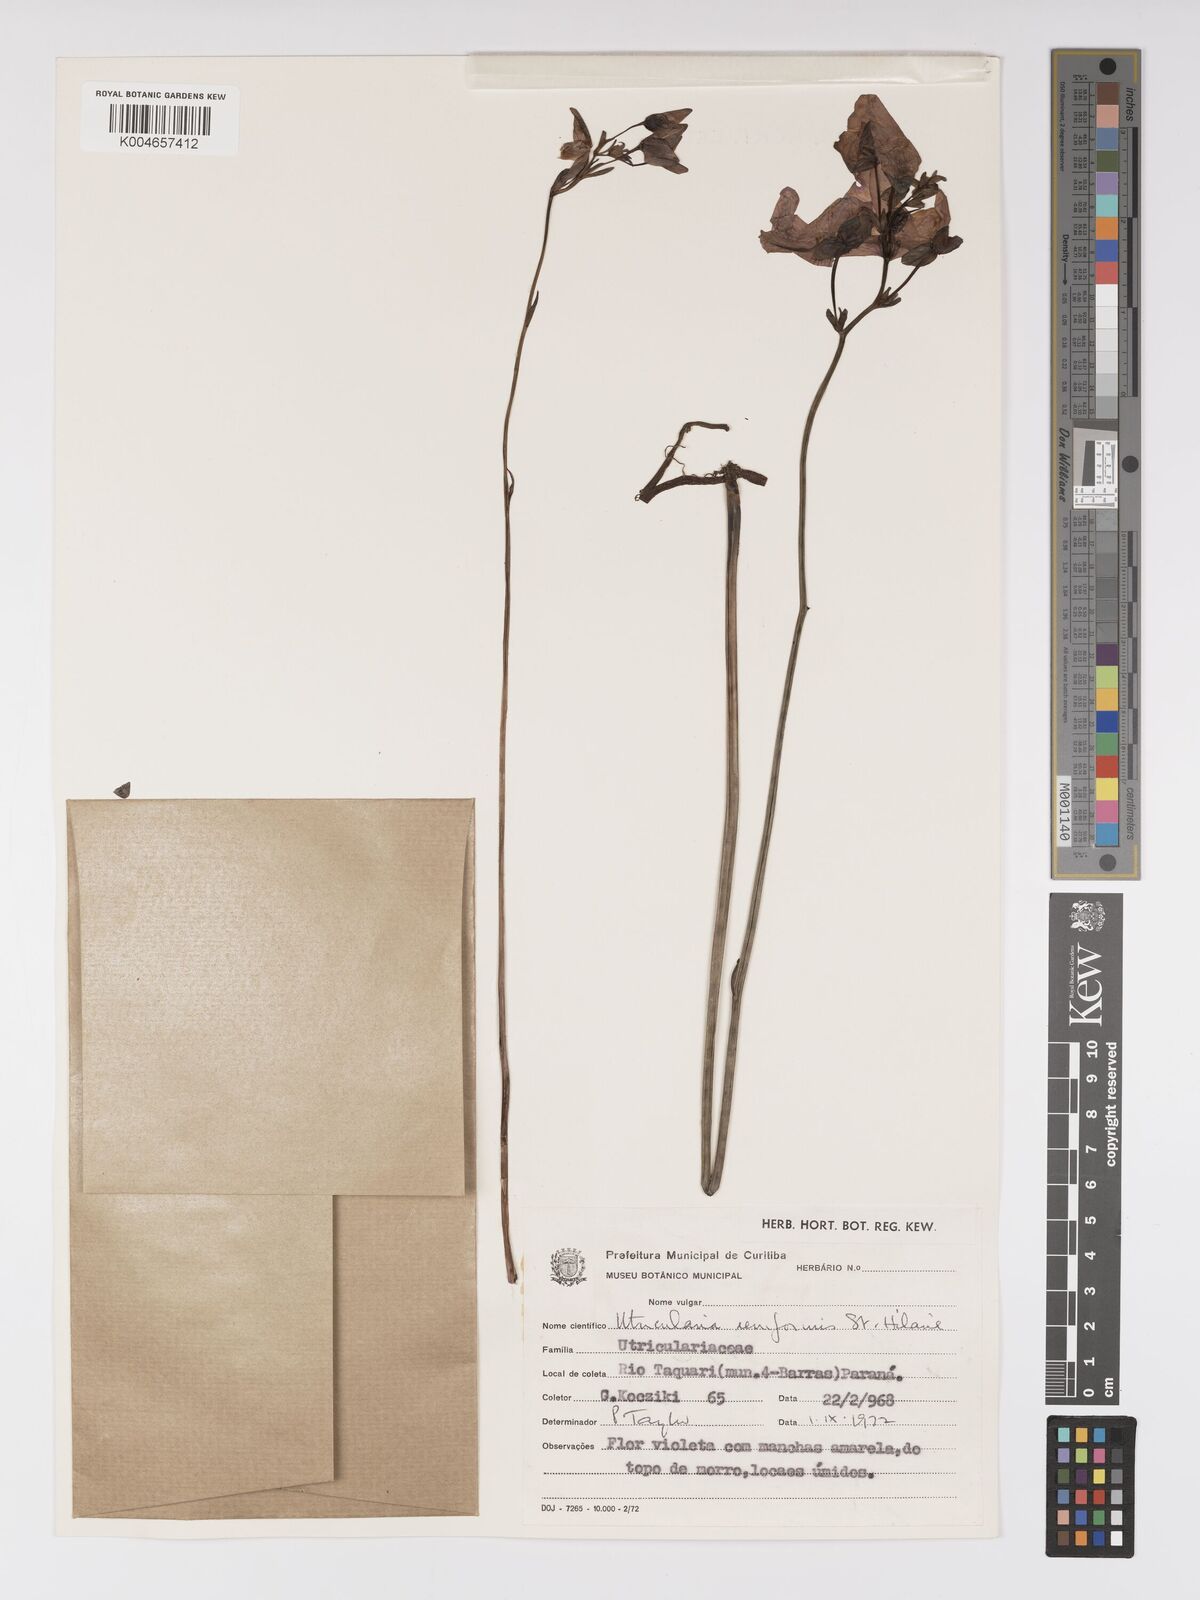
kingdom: Plantae
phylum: Tracheophyta
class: Magnoliopsida
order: Lamiales
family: Lentibulariaceae
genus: Utricularia
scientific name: Utricularia reniformis
